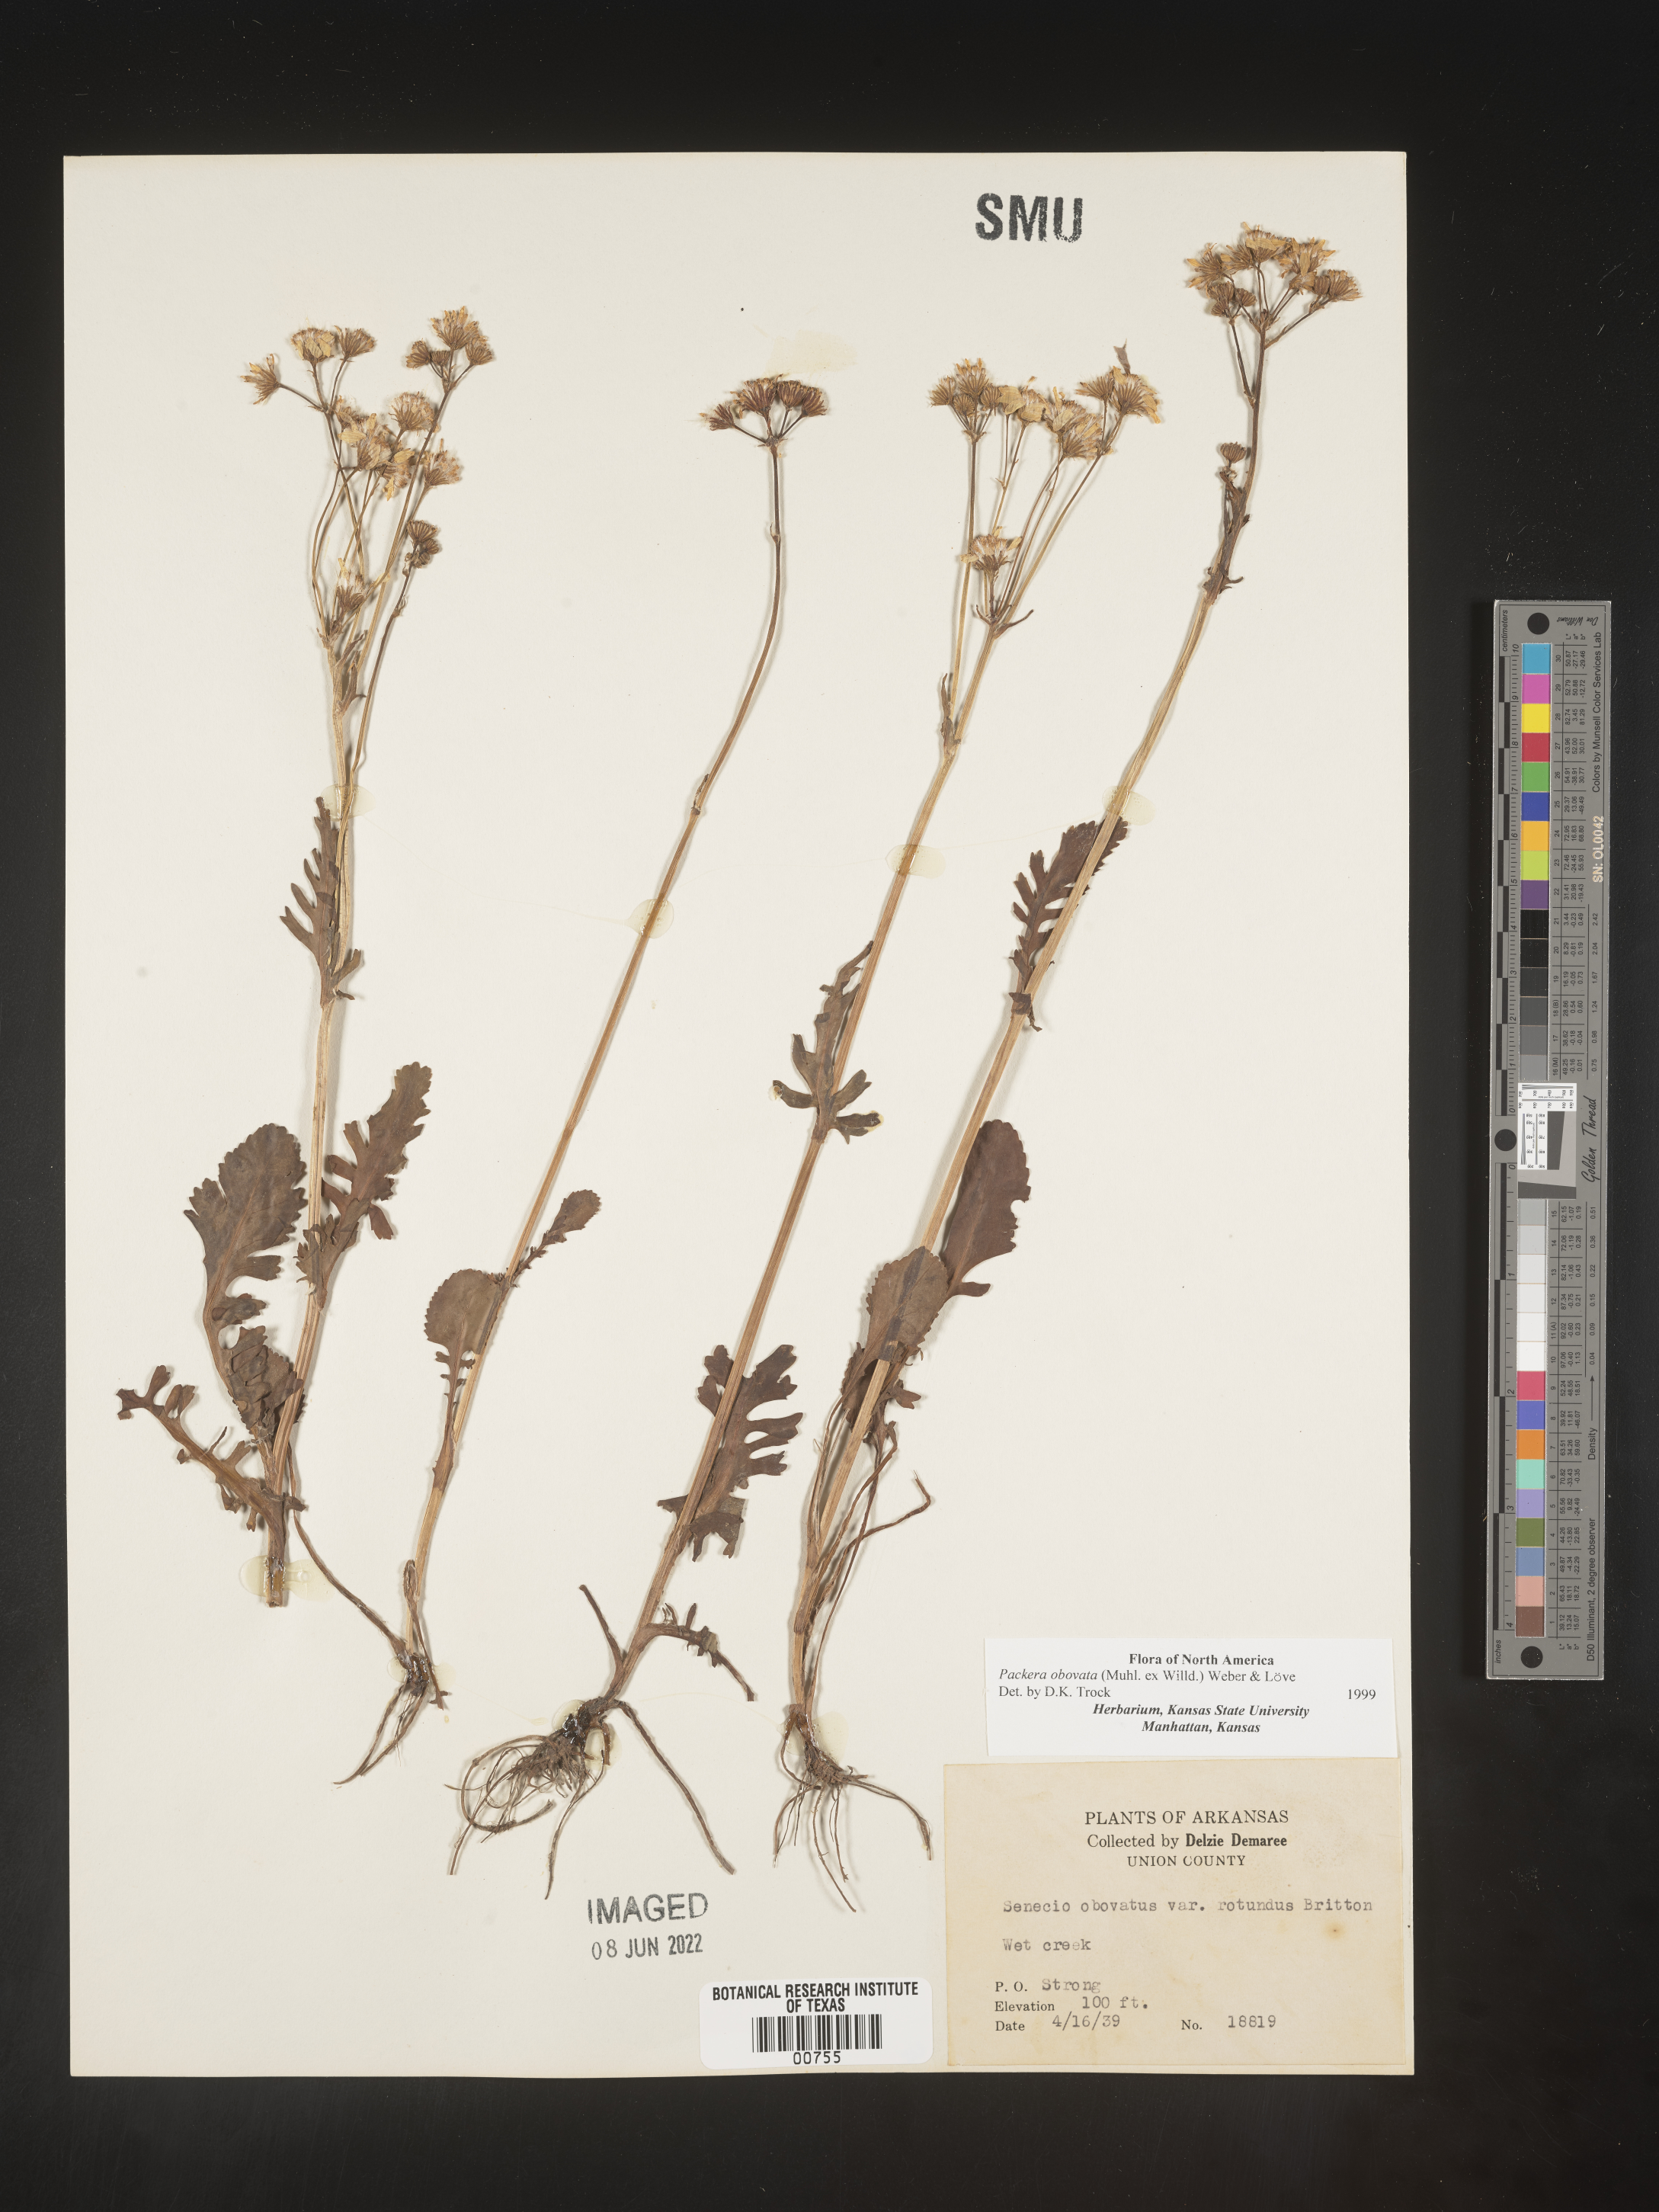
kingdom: Plantae
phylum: Tracheophyta
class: Magnoliopsida
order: Asterales
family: Asteraceae
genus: Packera
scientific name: Packera obovata
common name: Round-leaf ragwort
